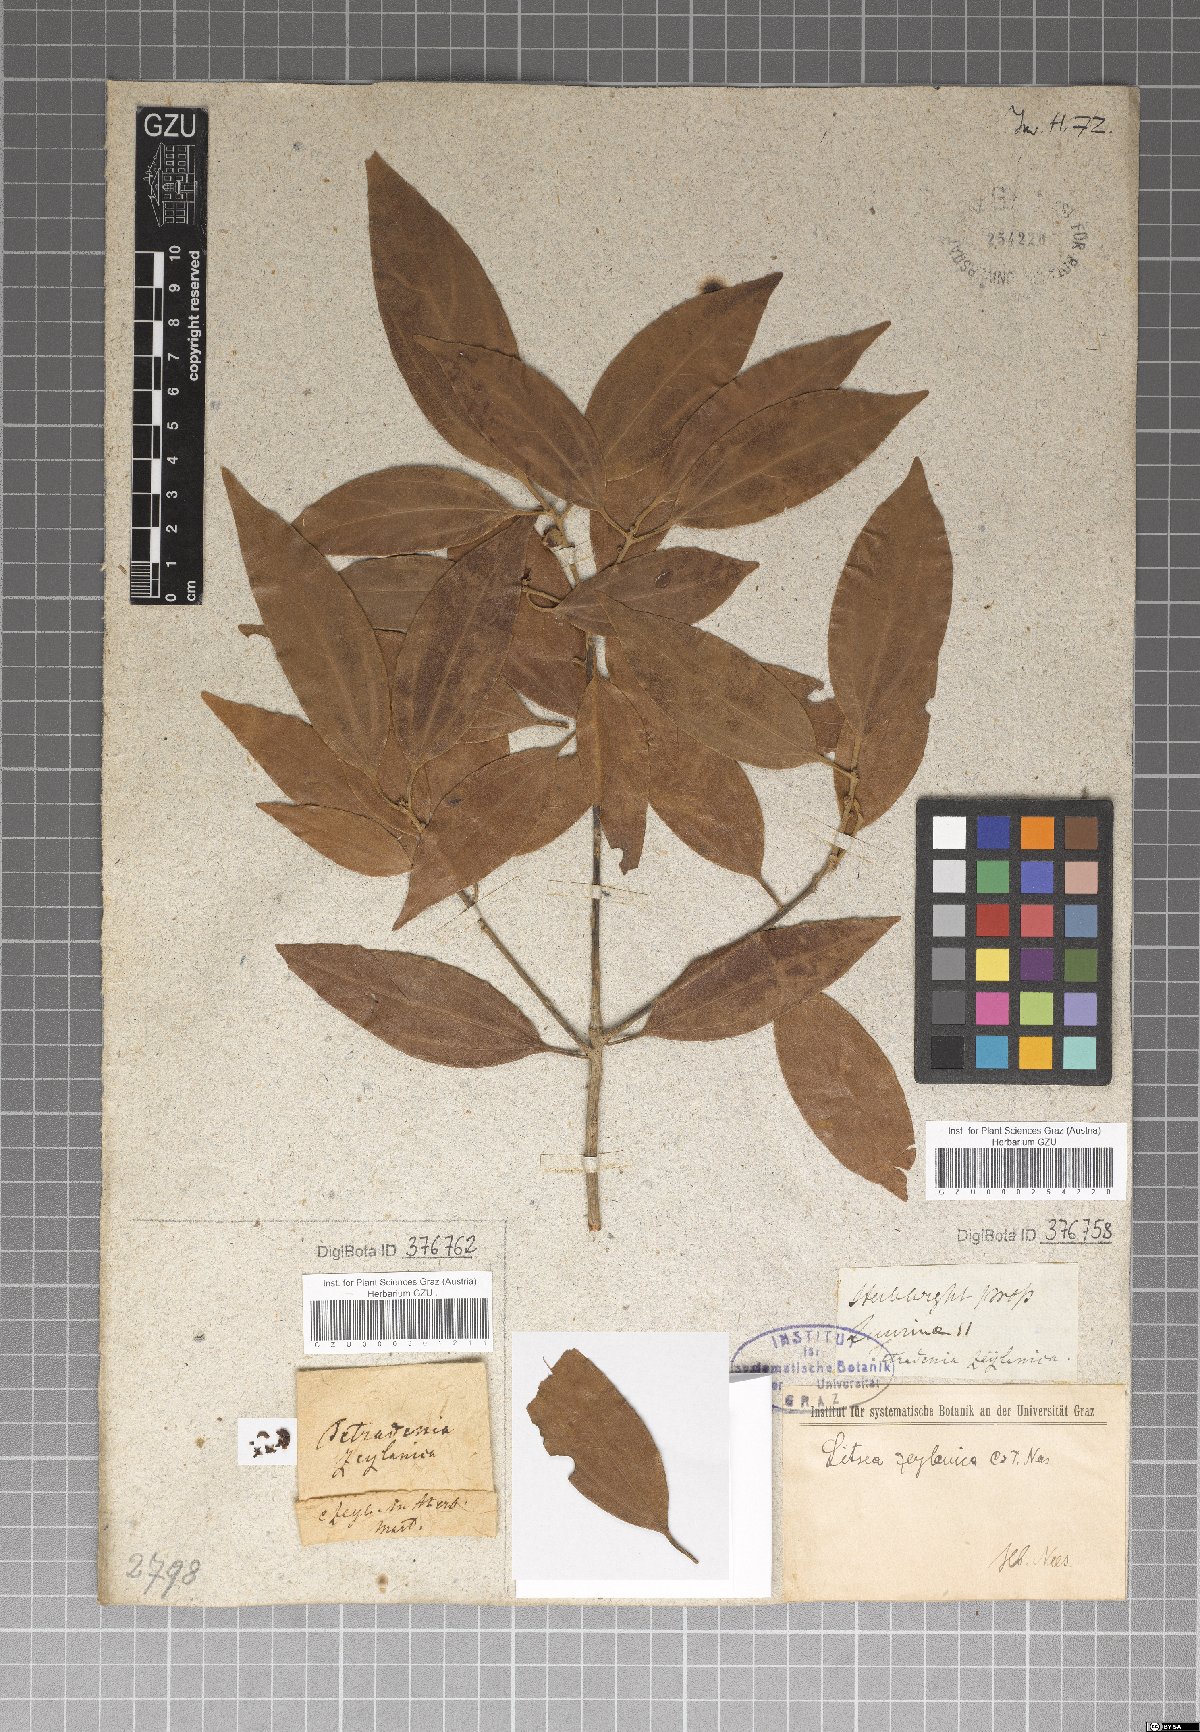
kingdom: Plantae
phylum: Tracheophyta
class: Magnoliopsida
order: Laurales
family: Lauraceae
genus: Neolitsea
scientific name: Neolitsea cassia
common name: Laurel
